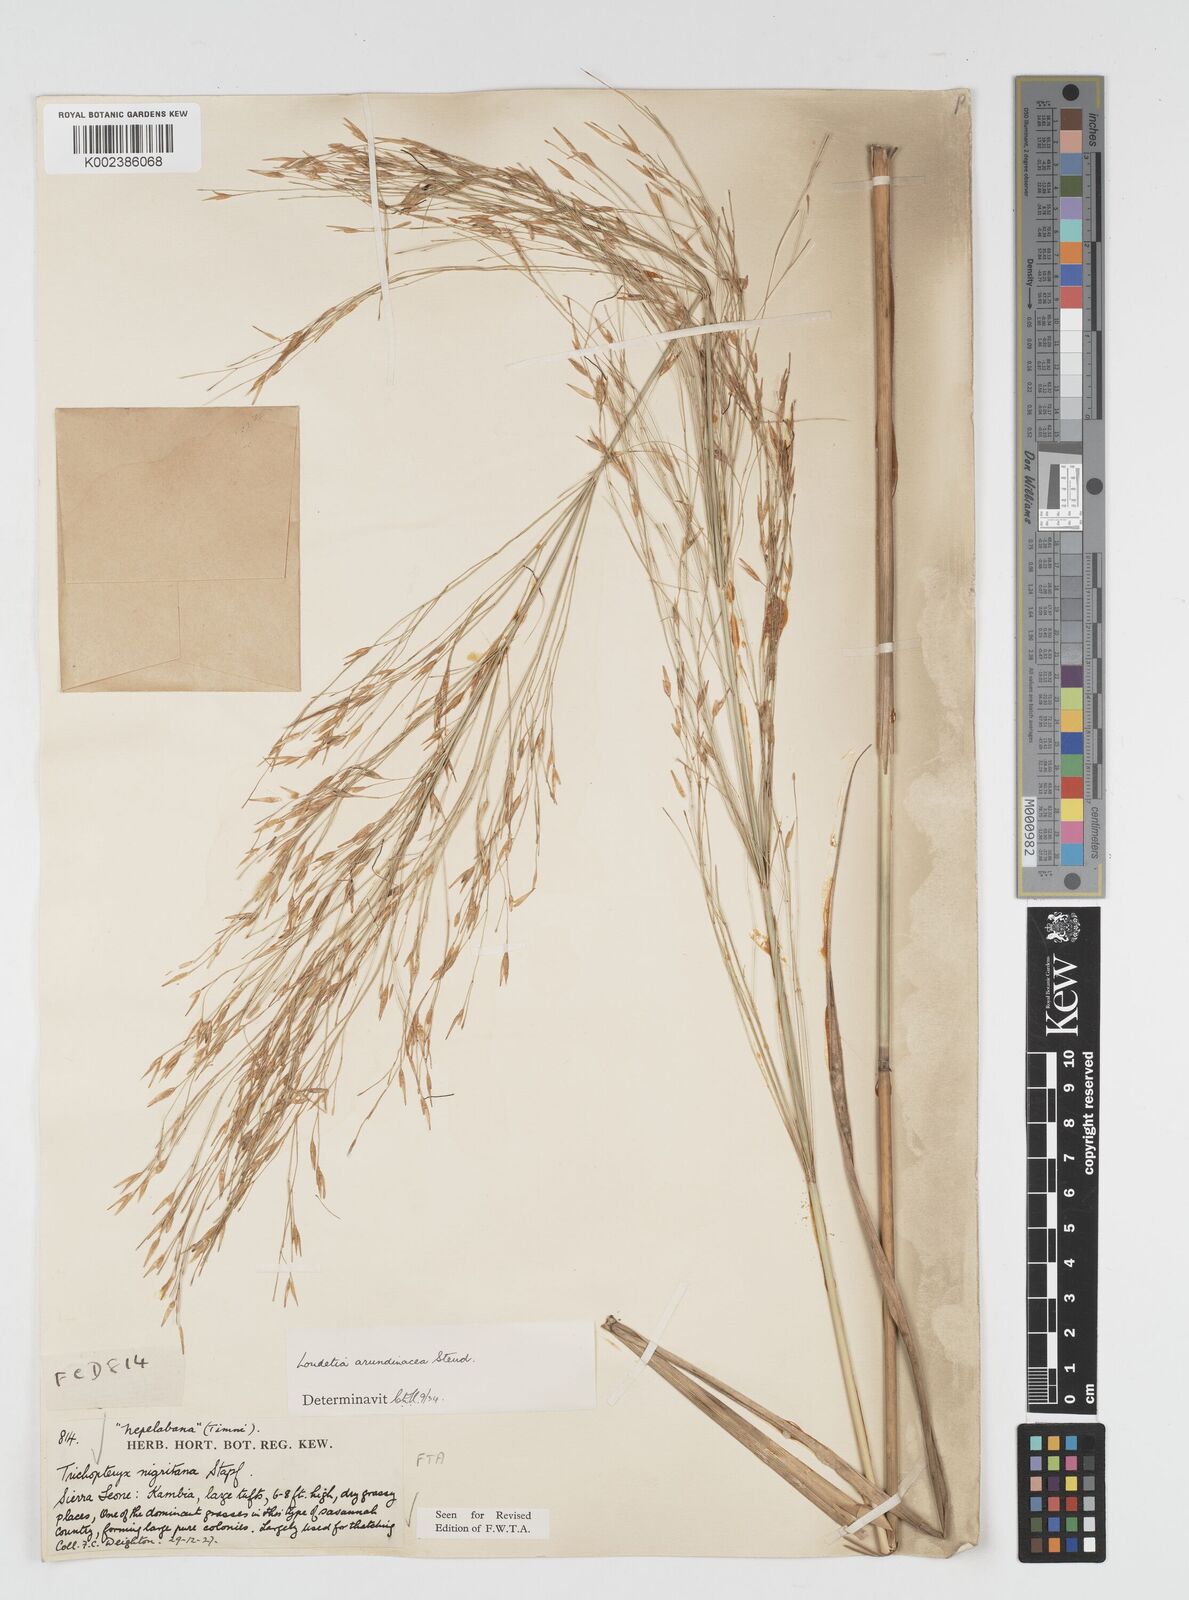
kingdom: Plantae
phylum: Tracheophyta
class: Liliopsida
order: Poales
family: Poaceae
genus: Loudetia
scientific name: Loudetia arundinacea
